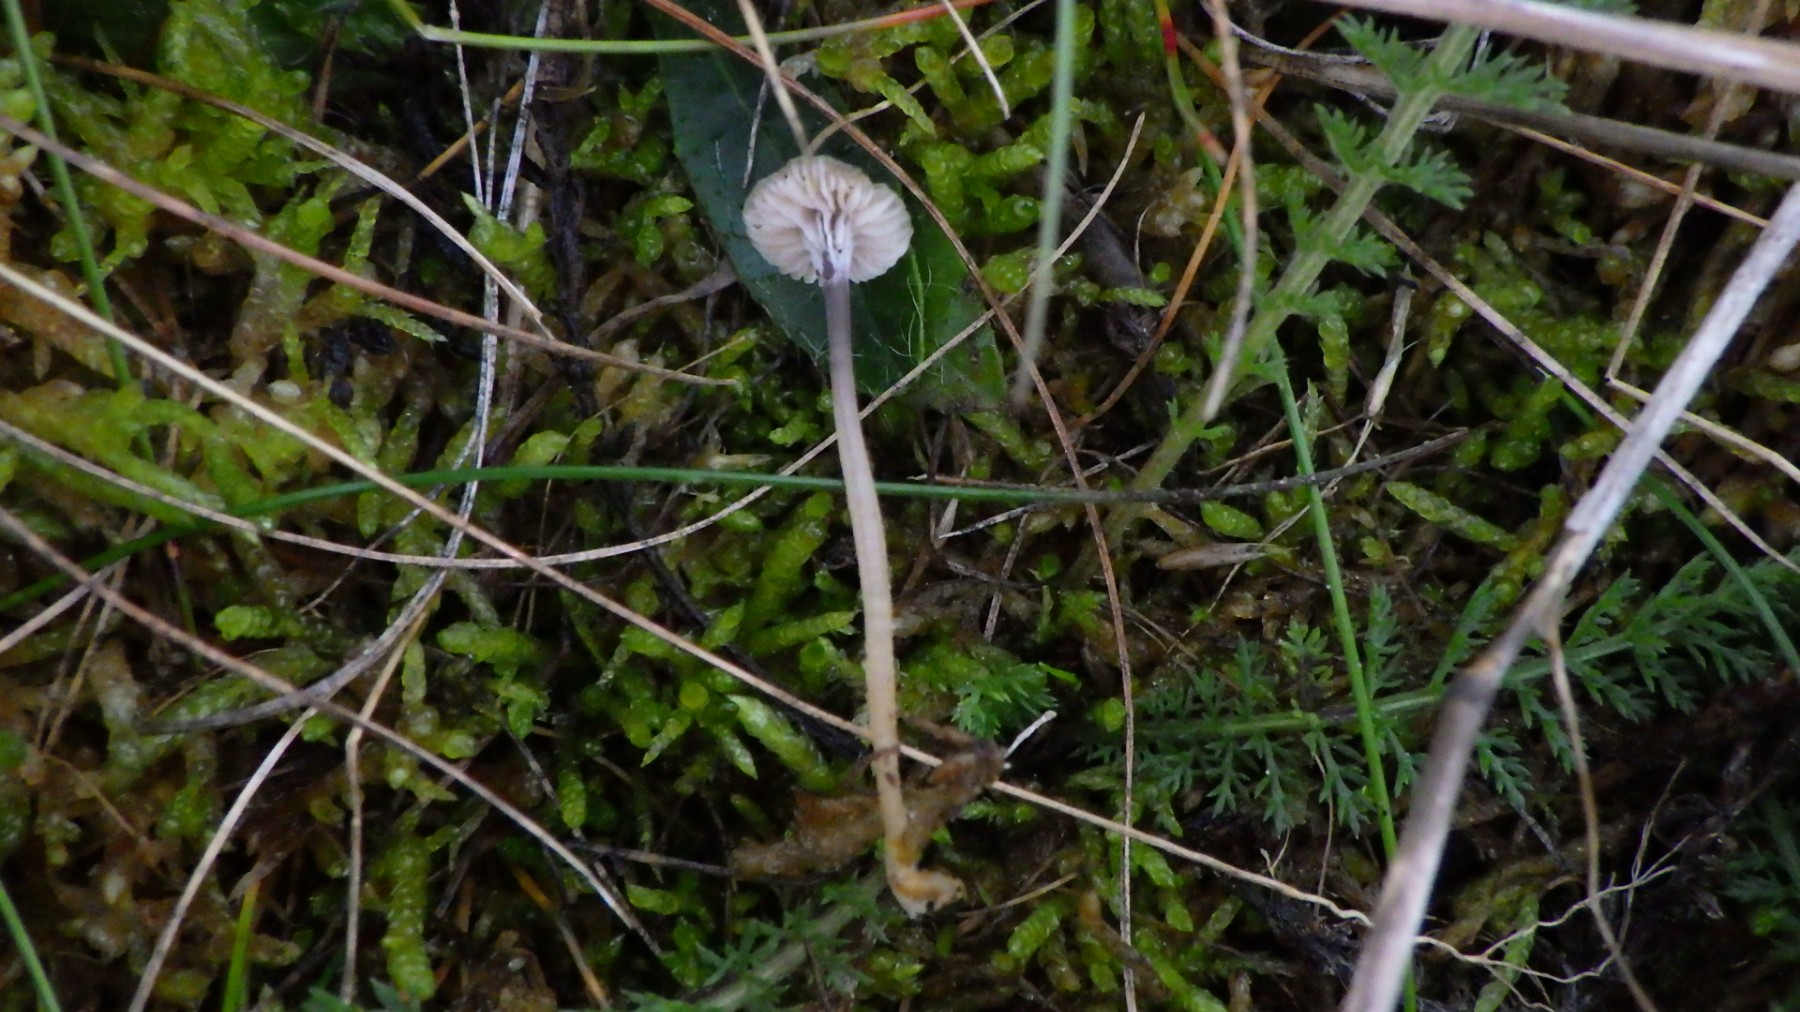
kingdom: Fungi
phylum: Basidiomycota
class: Agaricomycetes
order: Hymenochaetales
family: Rickenellaceae
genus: Rickenella
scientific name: Rickenella swartzii
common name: finstokket mosnavlehat
